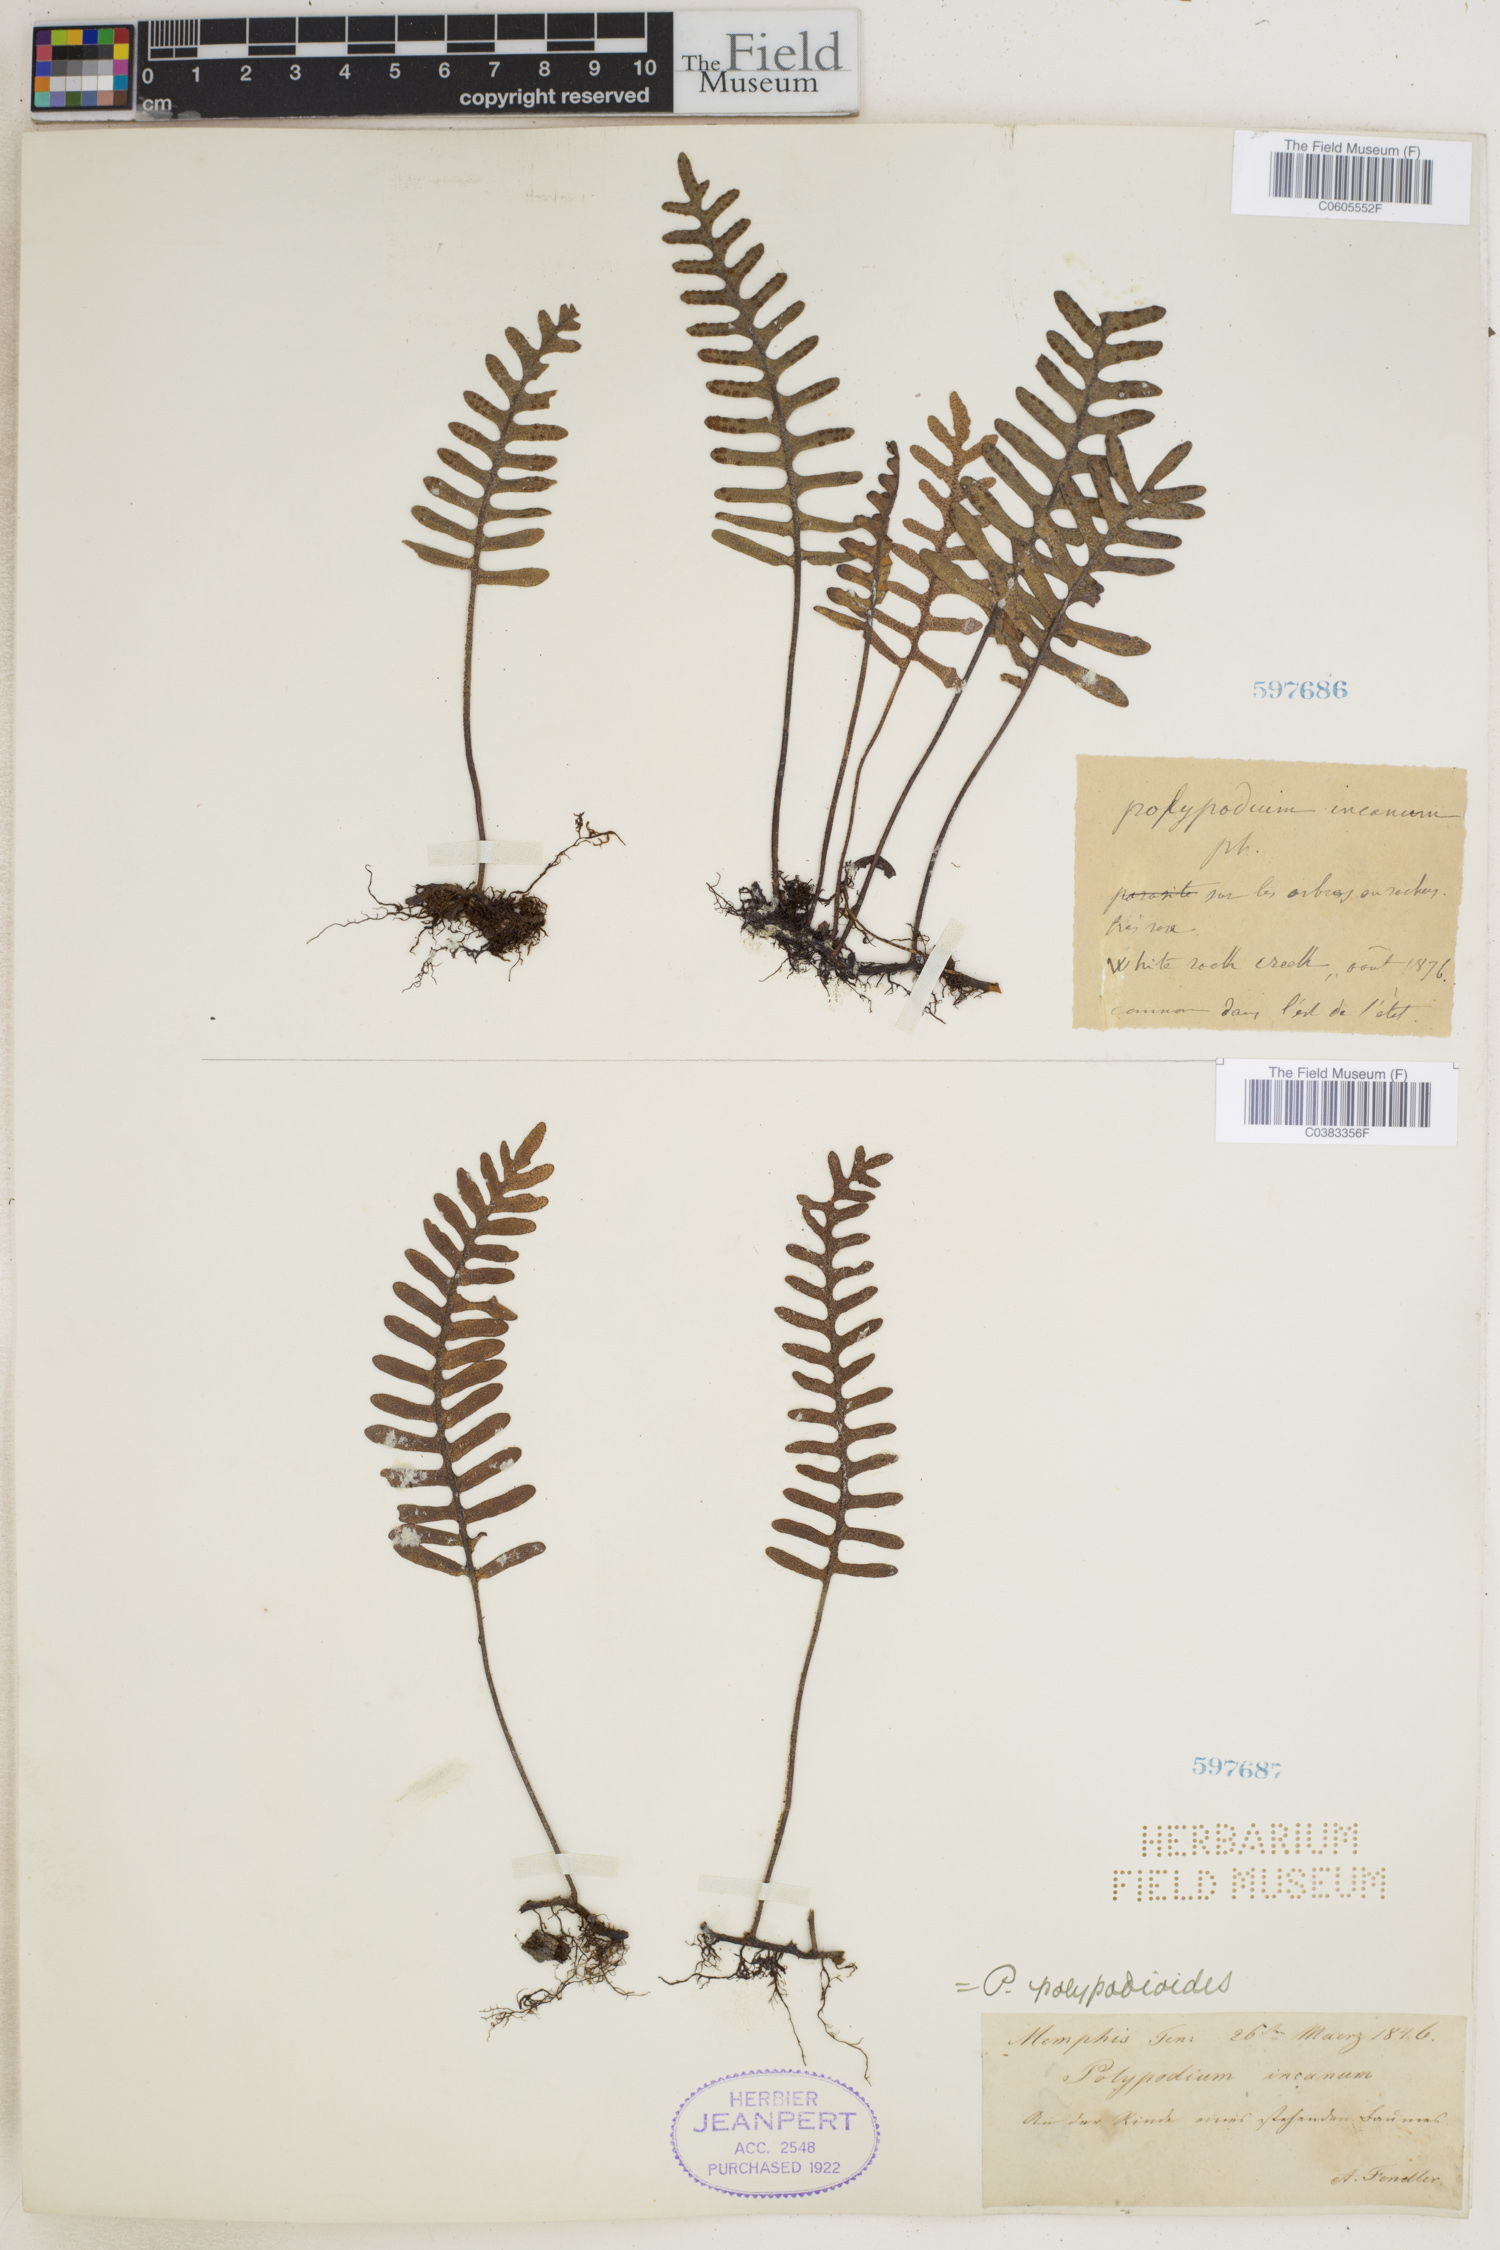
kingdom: Plantae
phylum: Tracheophyta
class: Polypodiopsida
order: Polypodiales
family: Polypodiaceae
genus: Pleopeltis
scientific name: Pleopeltis polypodioides
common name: Resurrection fern
